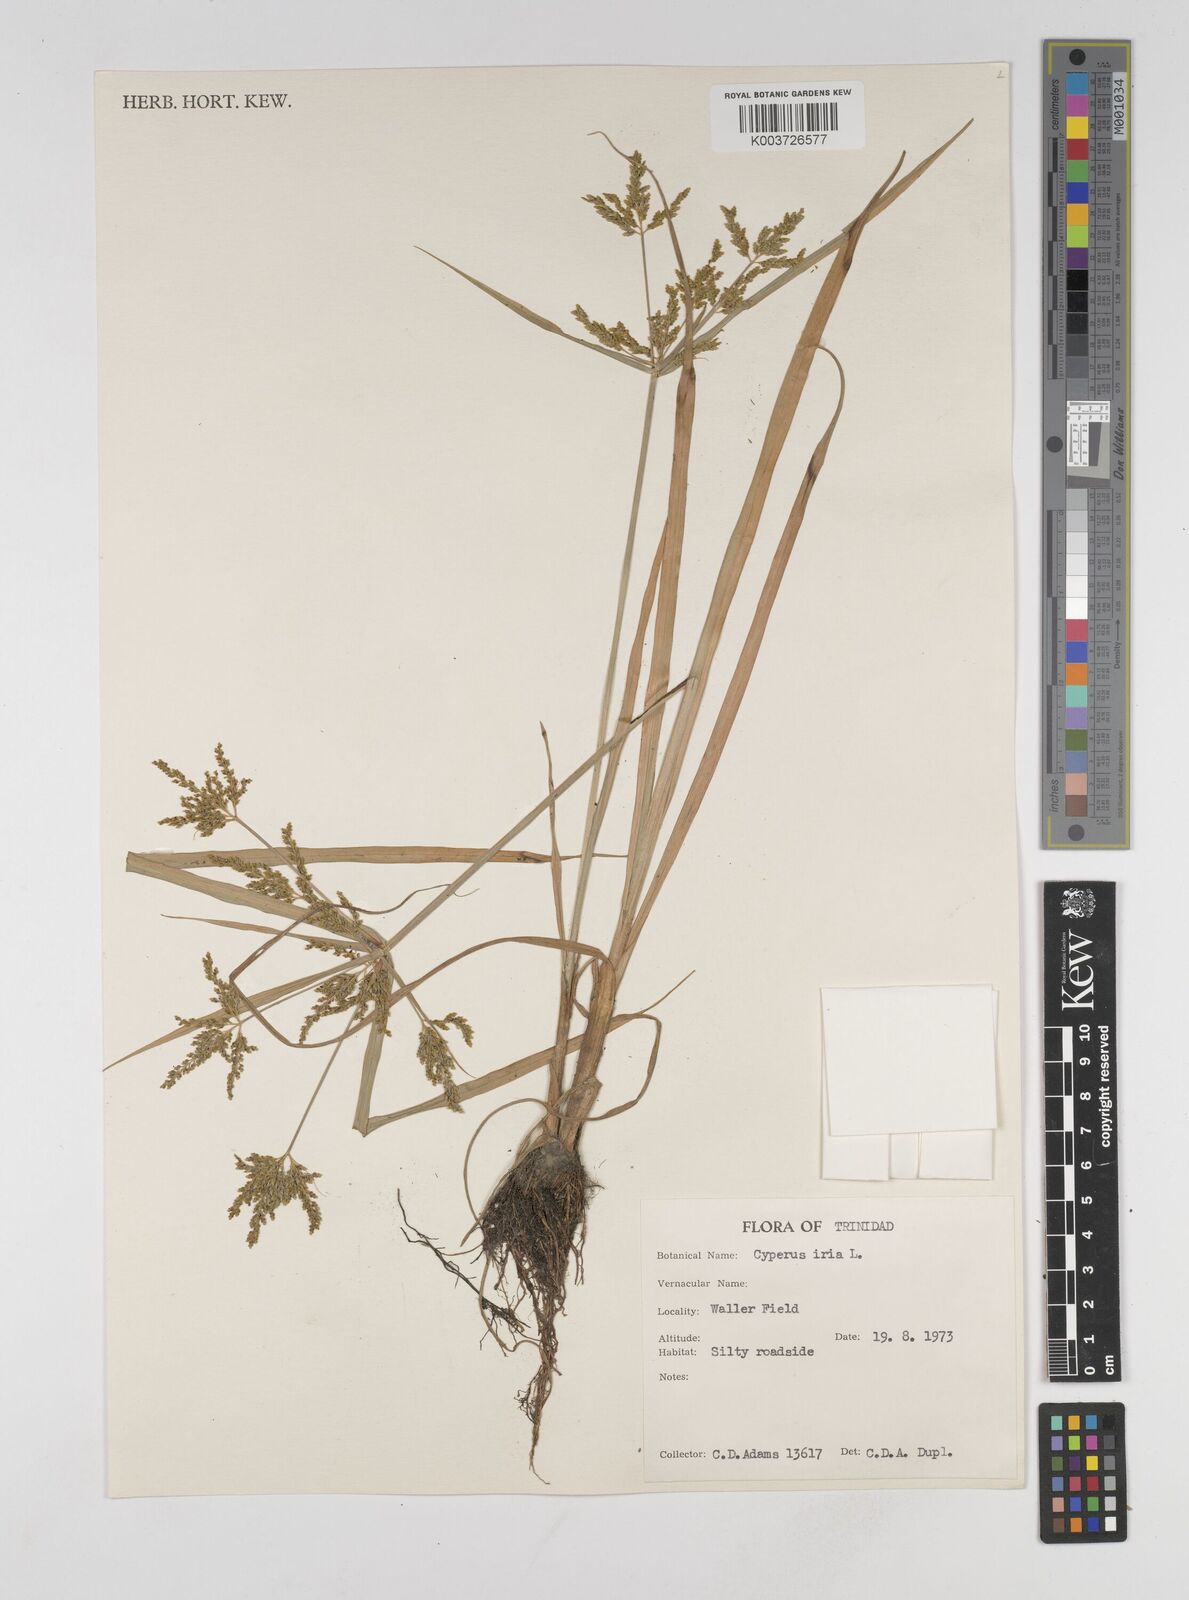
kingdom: Plantae
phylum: Tracheophyta
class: Liliopsida
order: Poales
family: Cyperaceae
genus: Cyperus
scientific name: Cyperus iria
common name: Ricefield flatsedge
